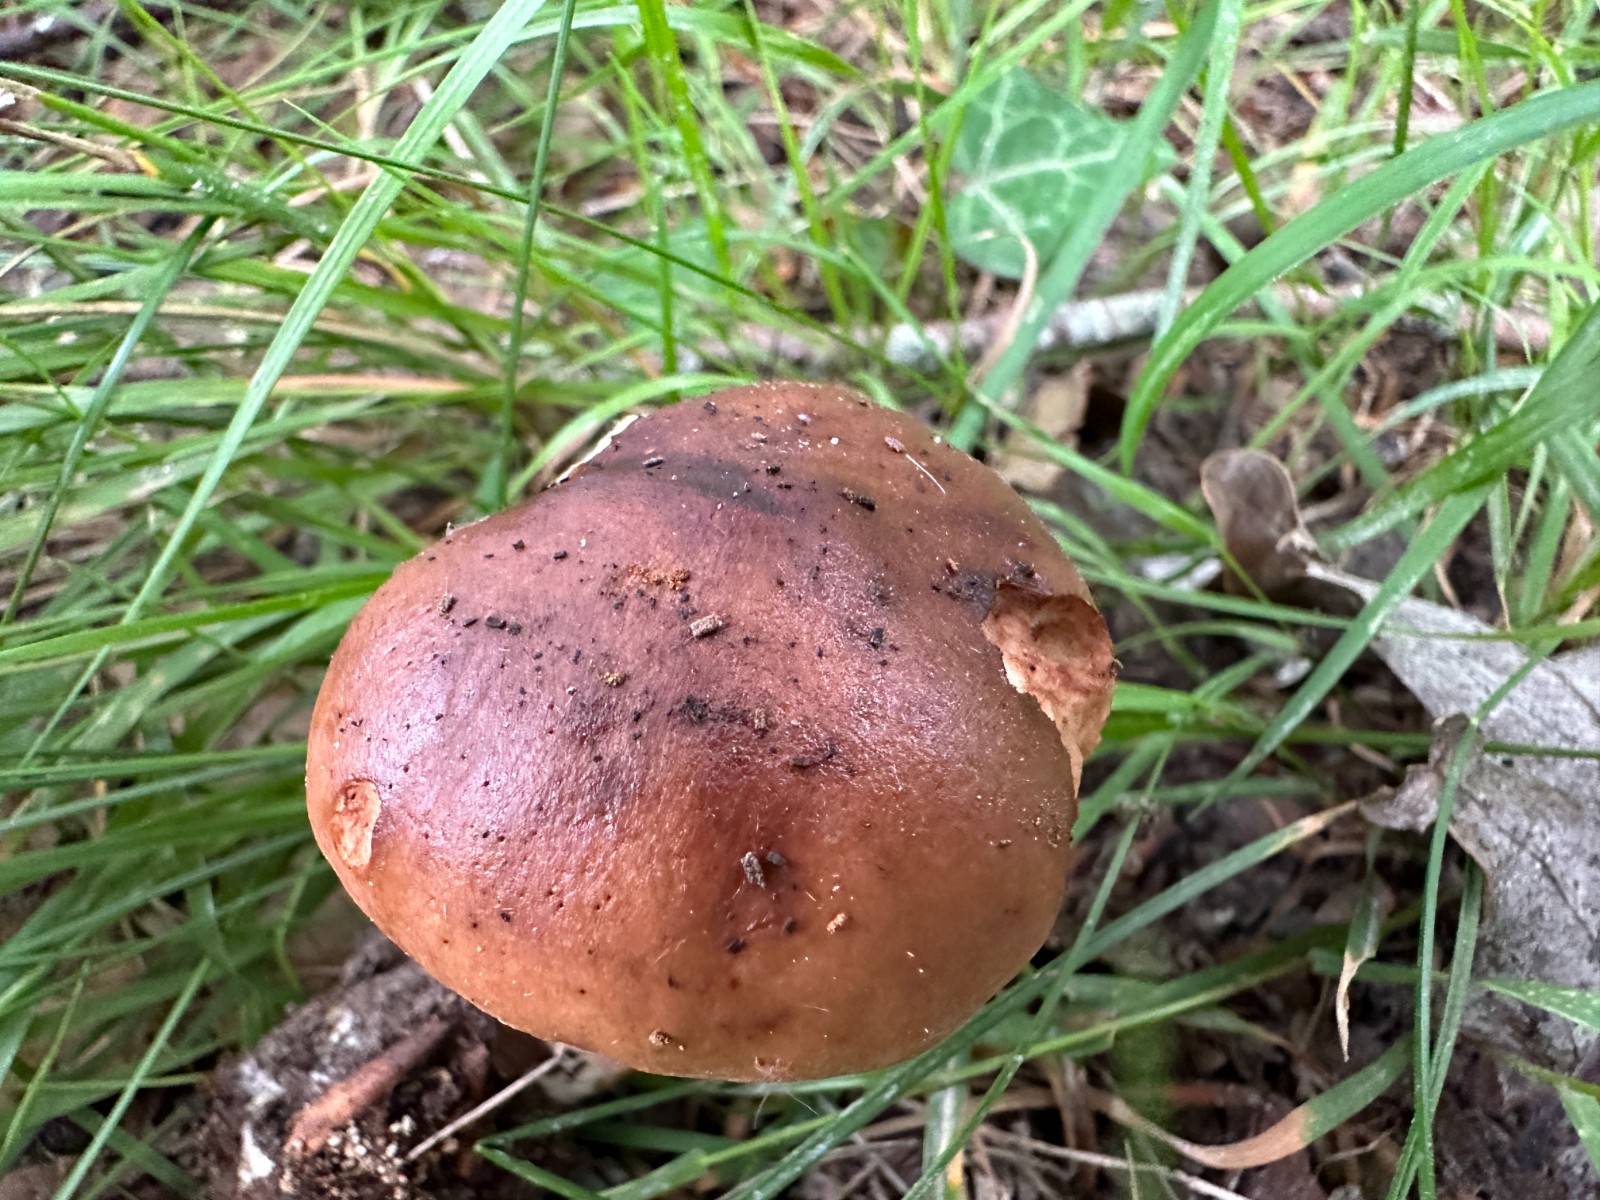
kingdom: Fungi
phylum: Basidiomycota
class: Agaricomycetes
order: Agaricales
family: Tricholomataceae
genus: Tricholoma
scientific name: Tricholoma ustale
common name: sveden ridderhat
